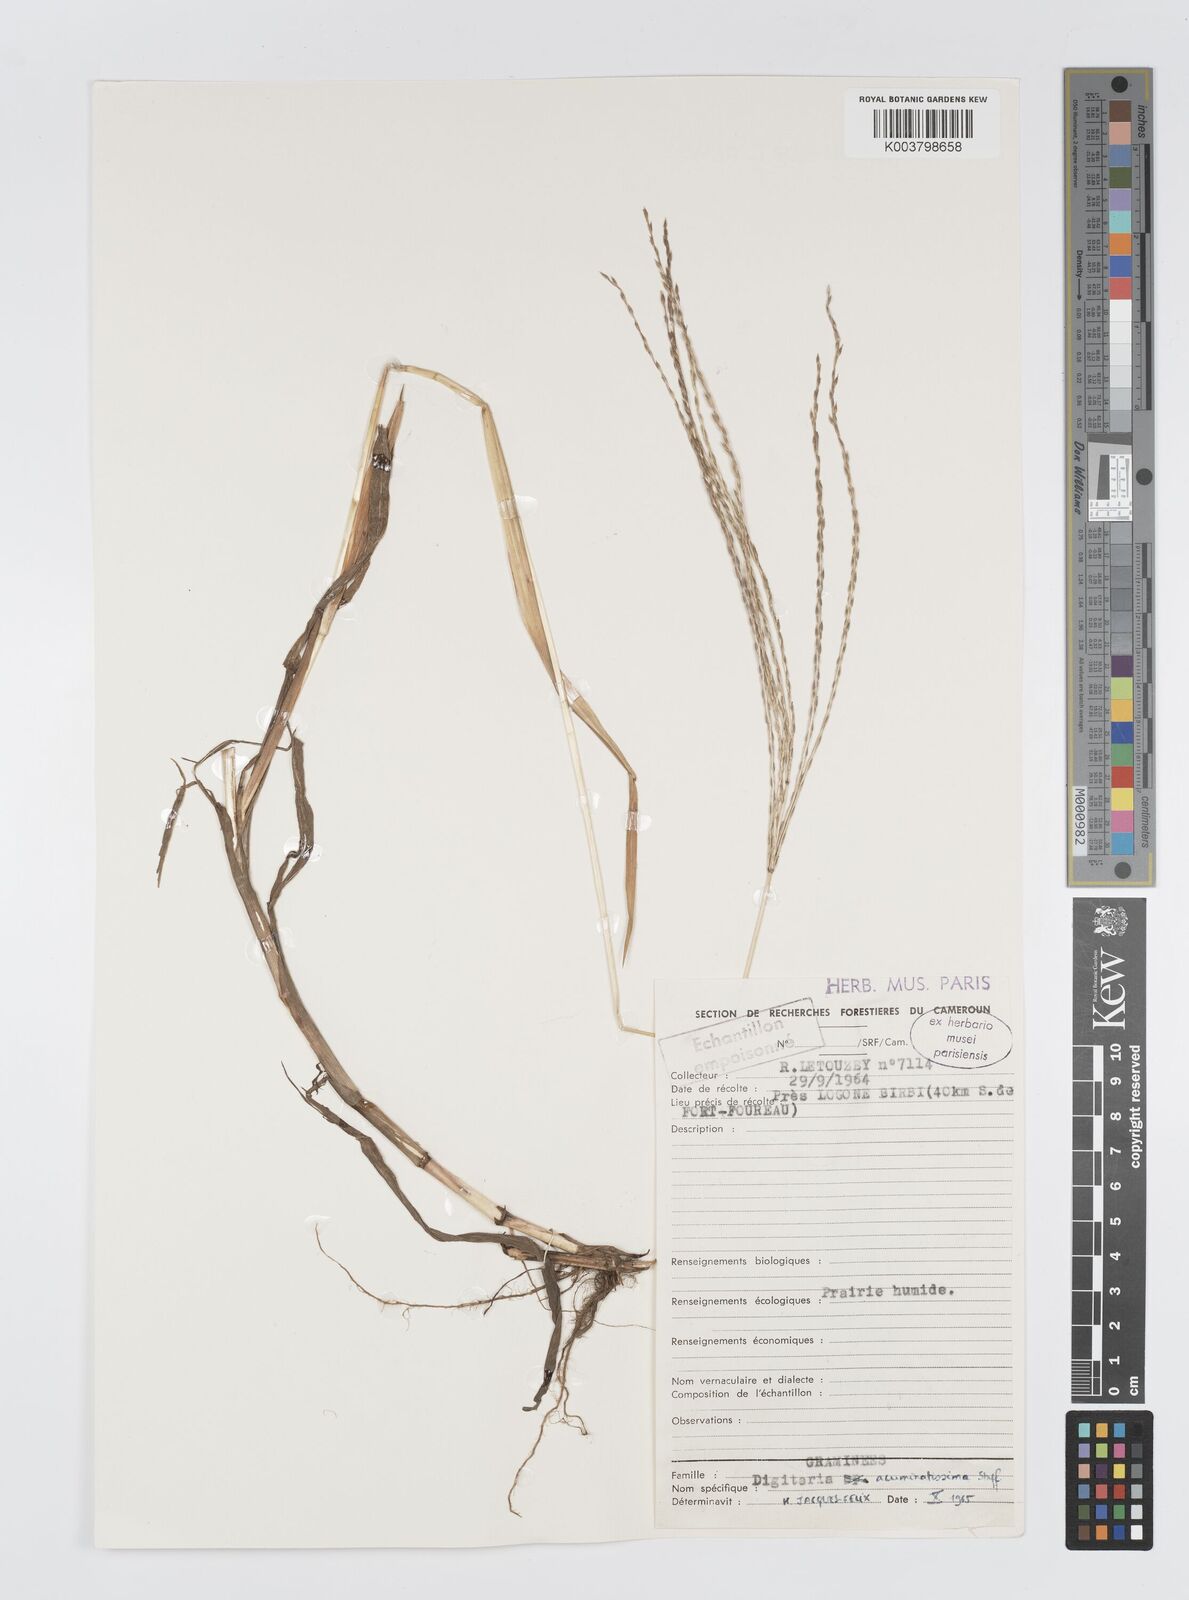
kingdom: Plantae
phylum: Tracheophyta
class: Liliopsida
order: Poales
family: Poaceae
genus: Digitaria
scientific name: Digitaria acuminatissima
